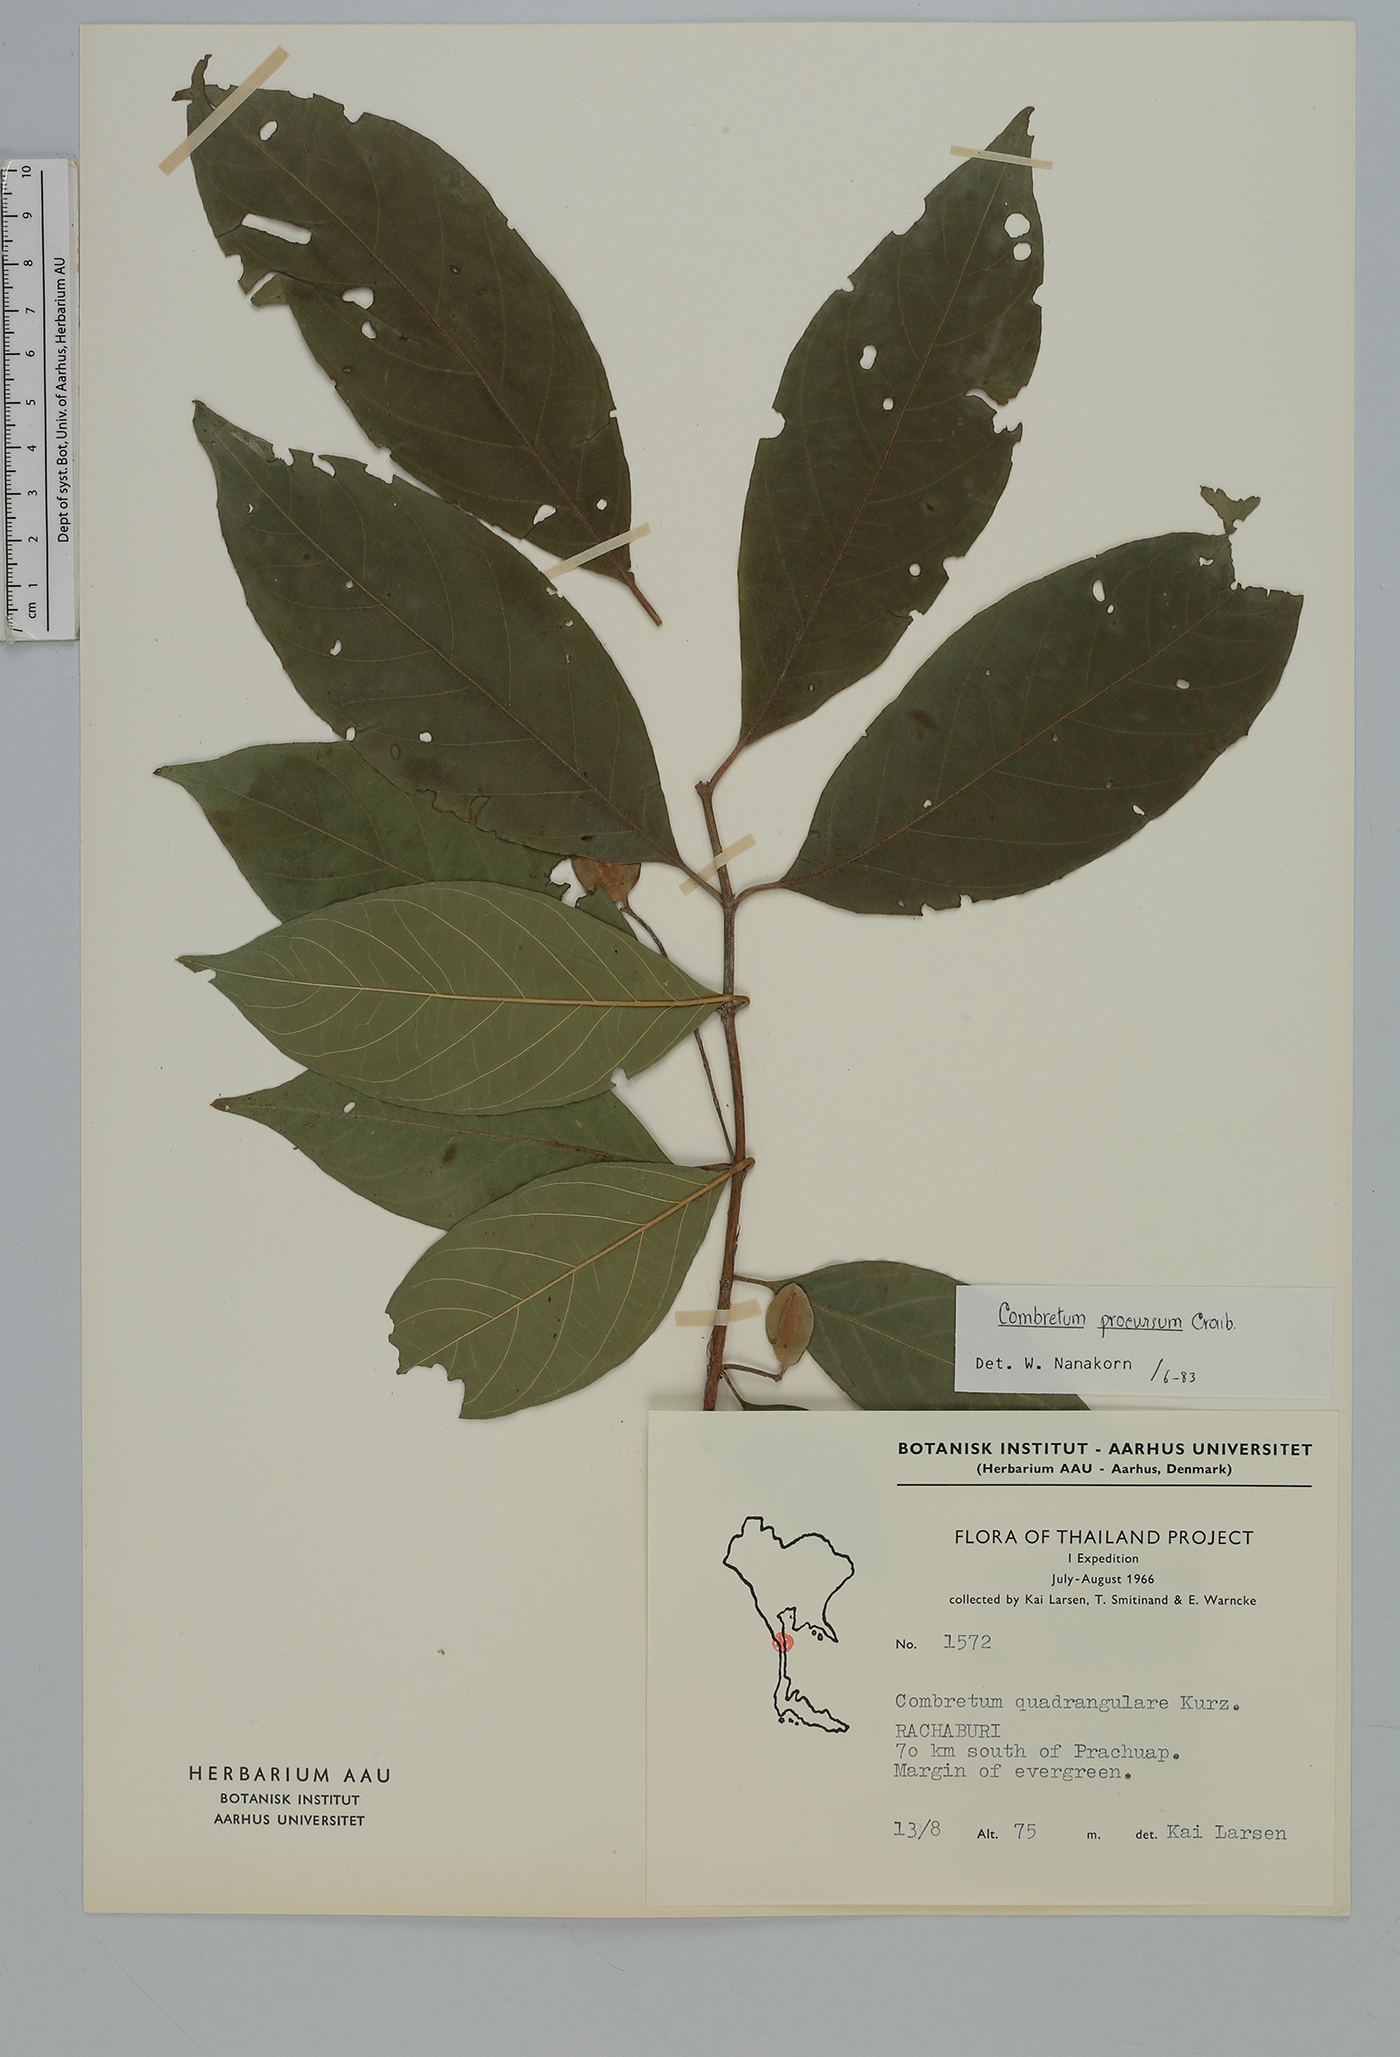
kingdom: Plantae
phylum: Tracheophyta
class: Magnoliopsida
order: Myrtales
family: Combretaceae
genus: Combretum
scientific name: Combretum procursum
